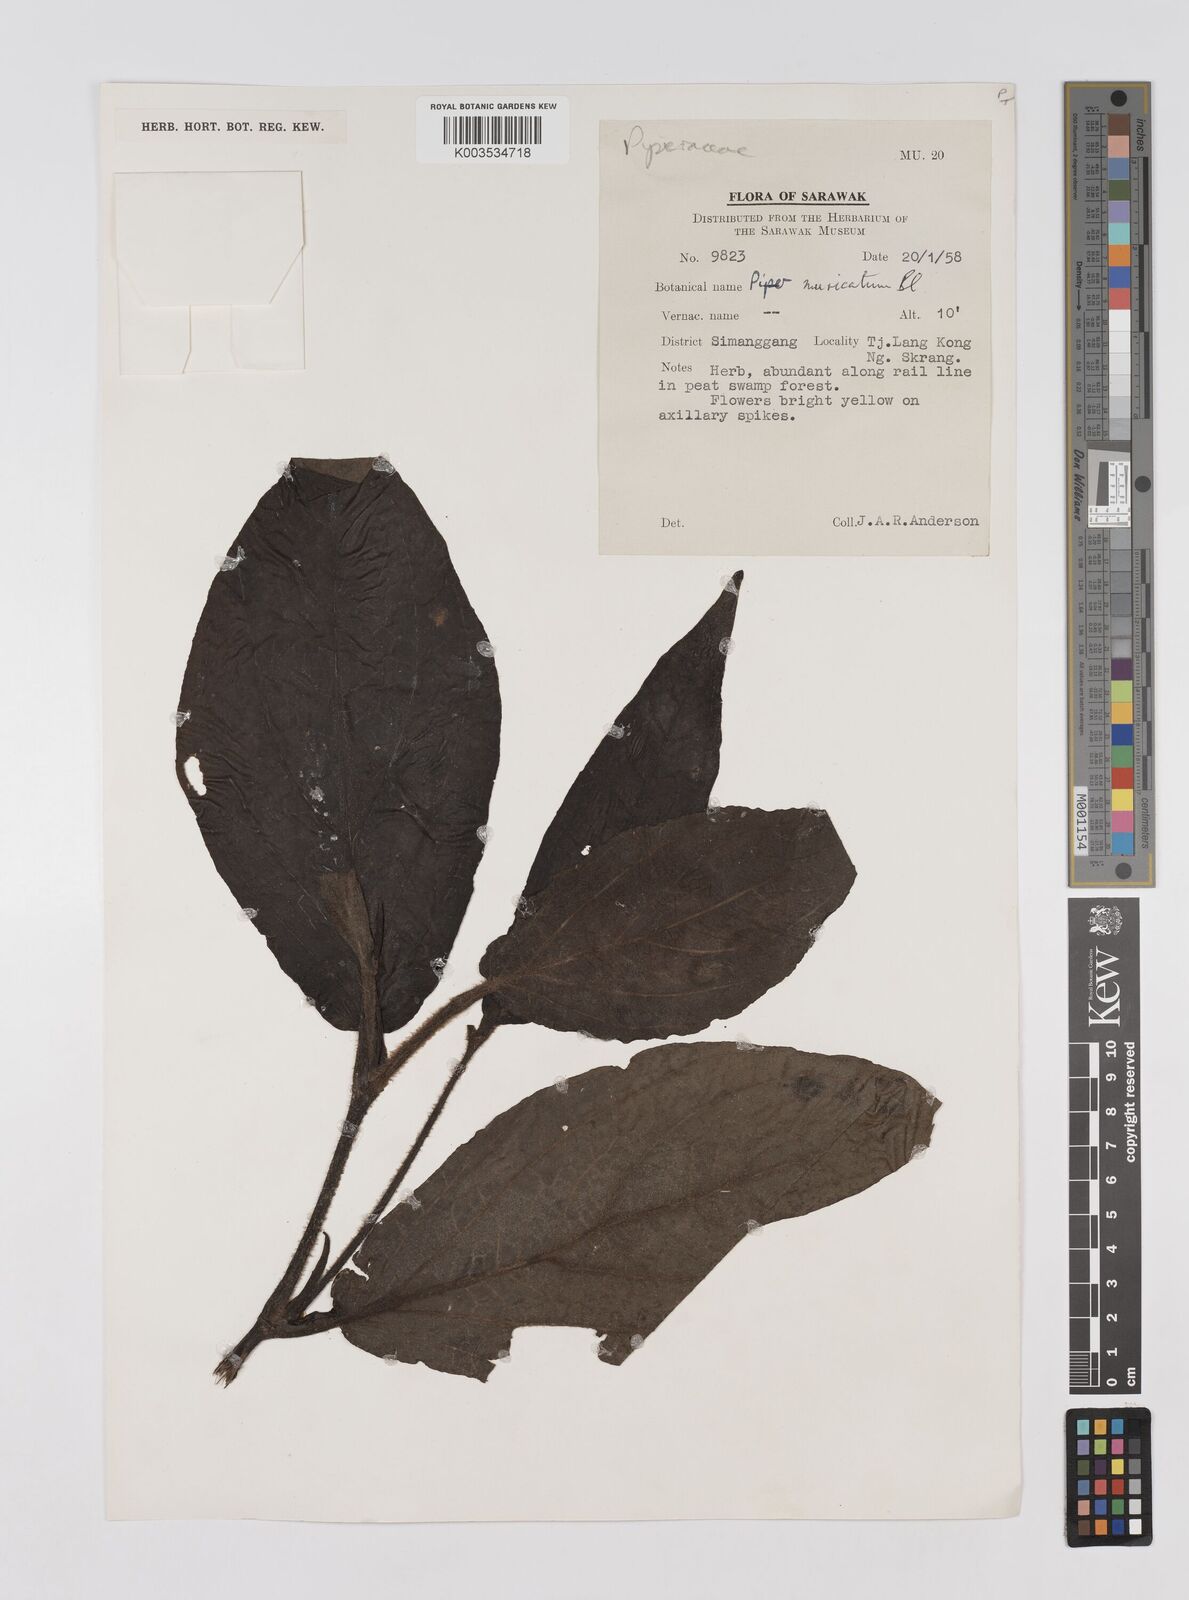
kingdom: Plantae
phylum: Tracheophyta
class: Magnoliopsida
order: Piperales
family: Piperaceae
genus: Piper
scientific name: Piper muricatum
